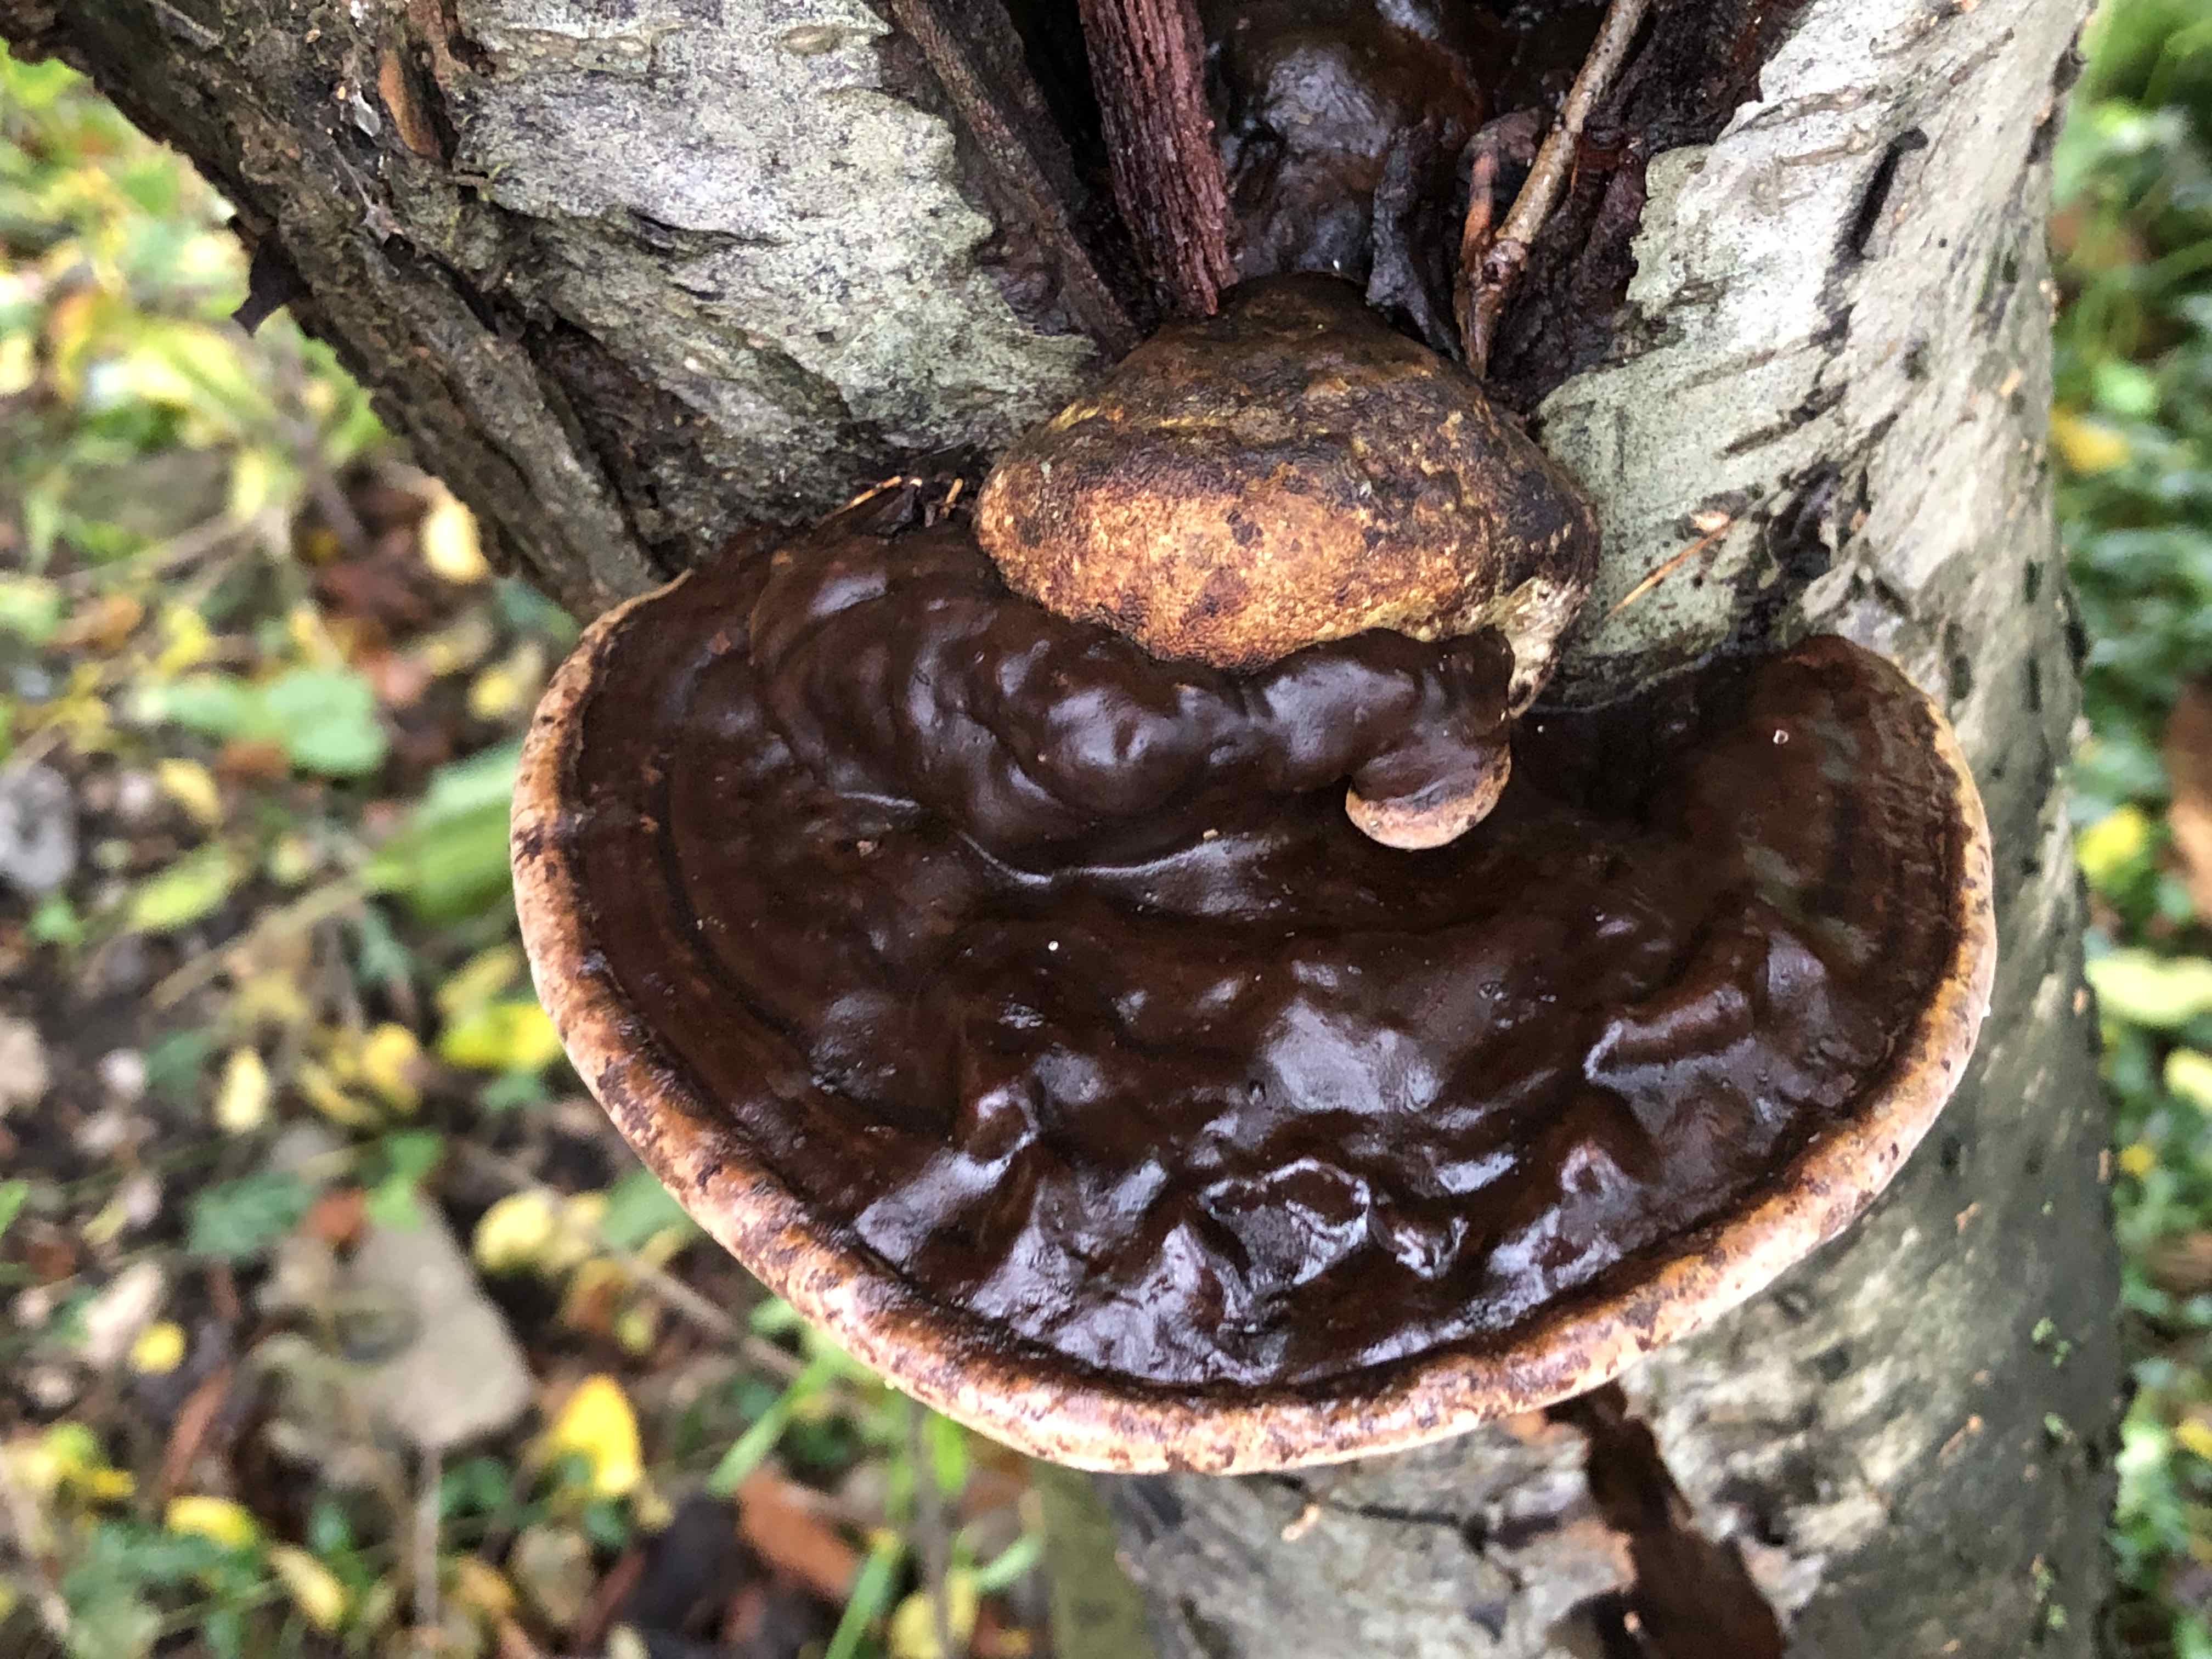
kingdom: Fungi
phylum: Basidiomycota
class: Agaricomycetes
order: Polyporales
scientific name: Polyporales
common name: poresvampordenen
